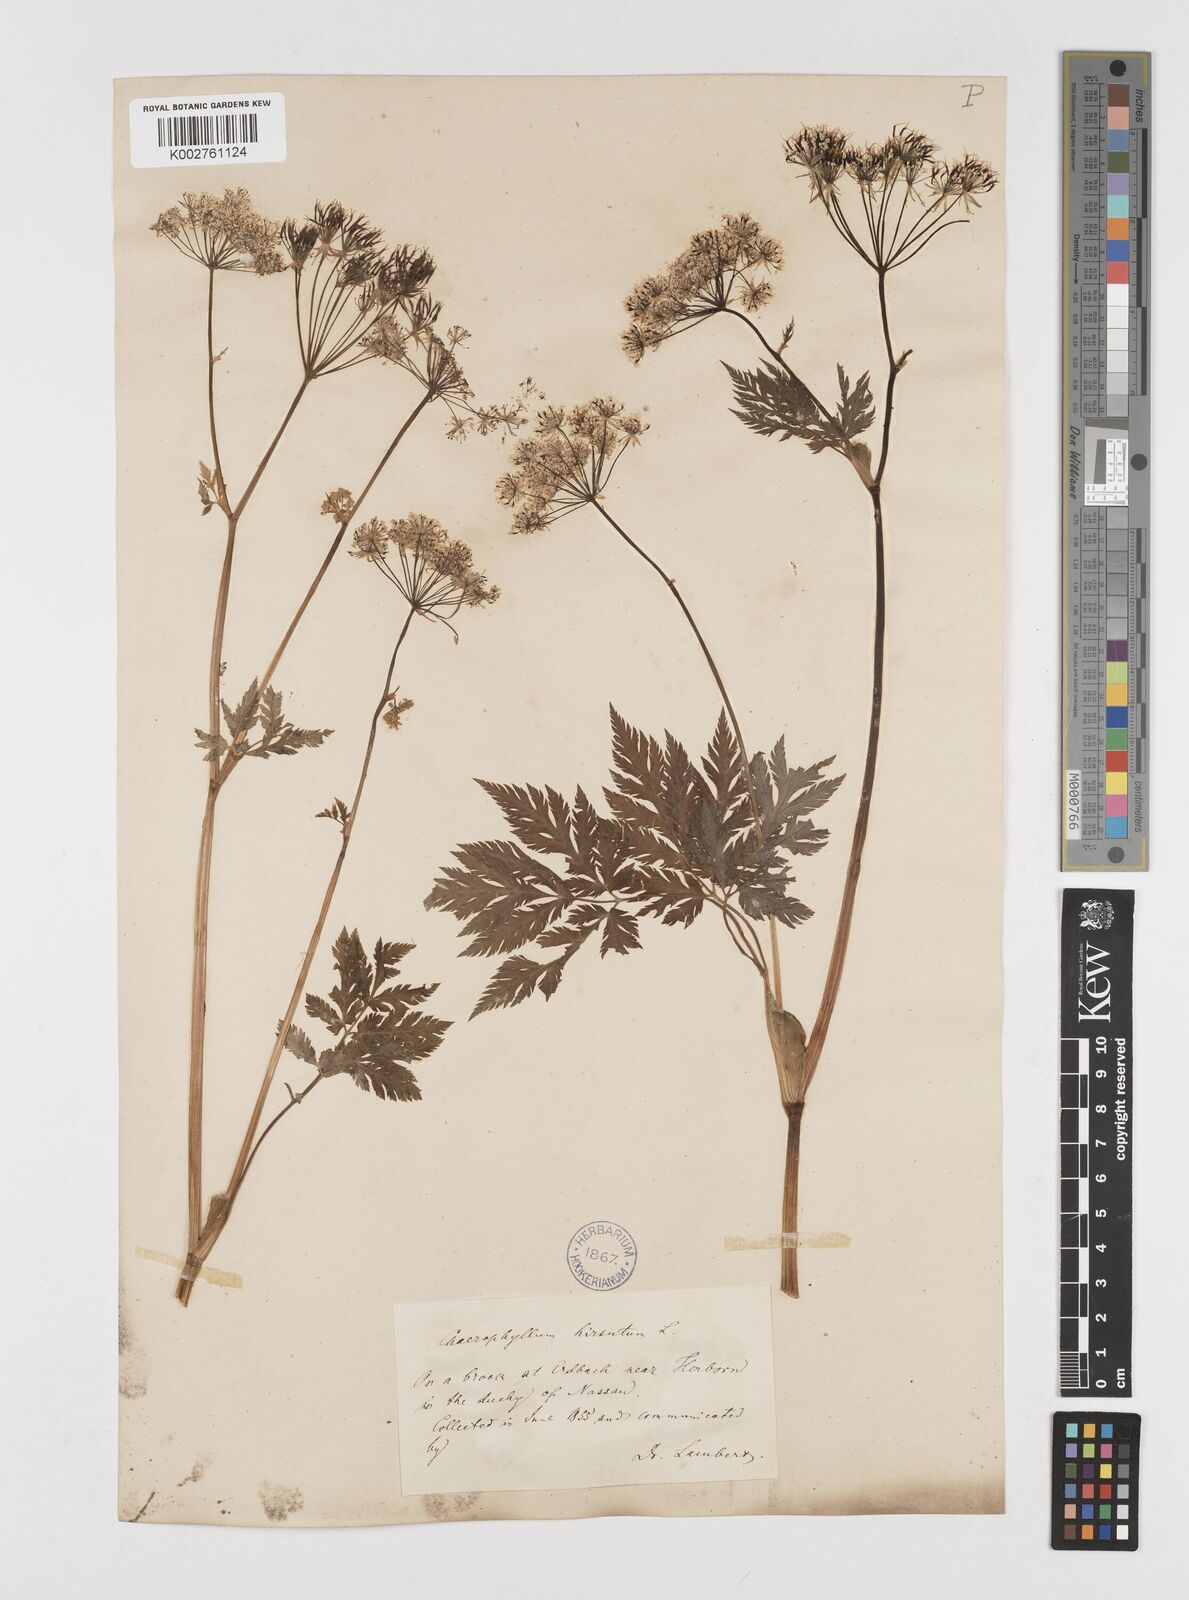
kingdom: Plantae
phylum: Tracheophyta
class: Magnoliopsida
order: Apiales
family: Apiaceae
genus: Chaerophyllum
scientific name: Chaerophyllum hirsutum
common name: Hairy chervil
